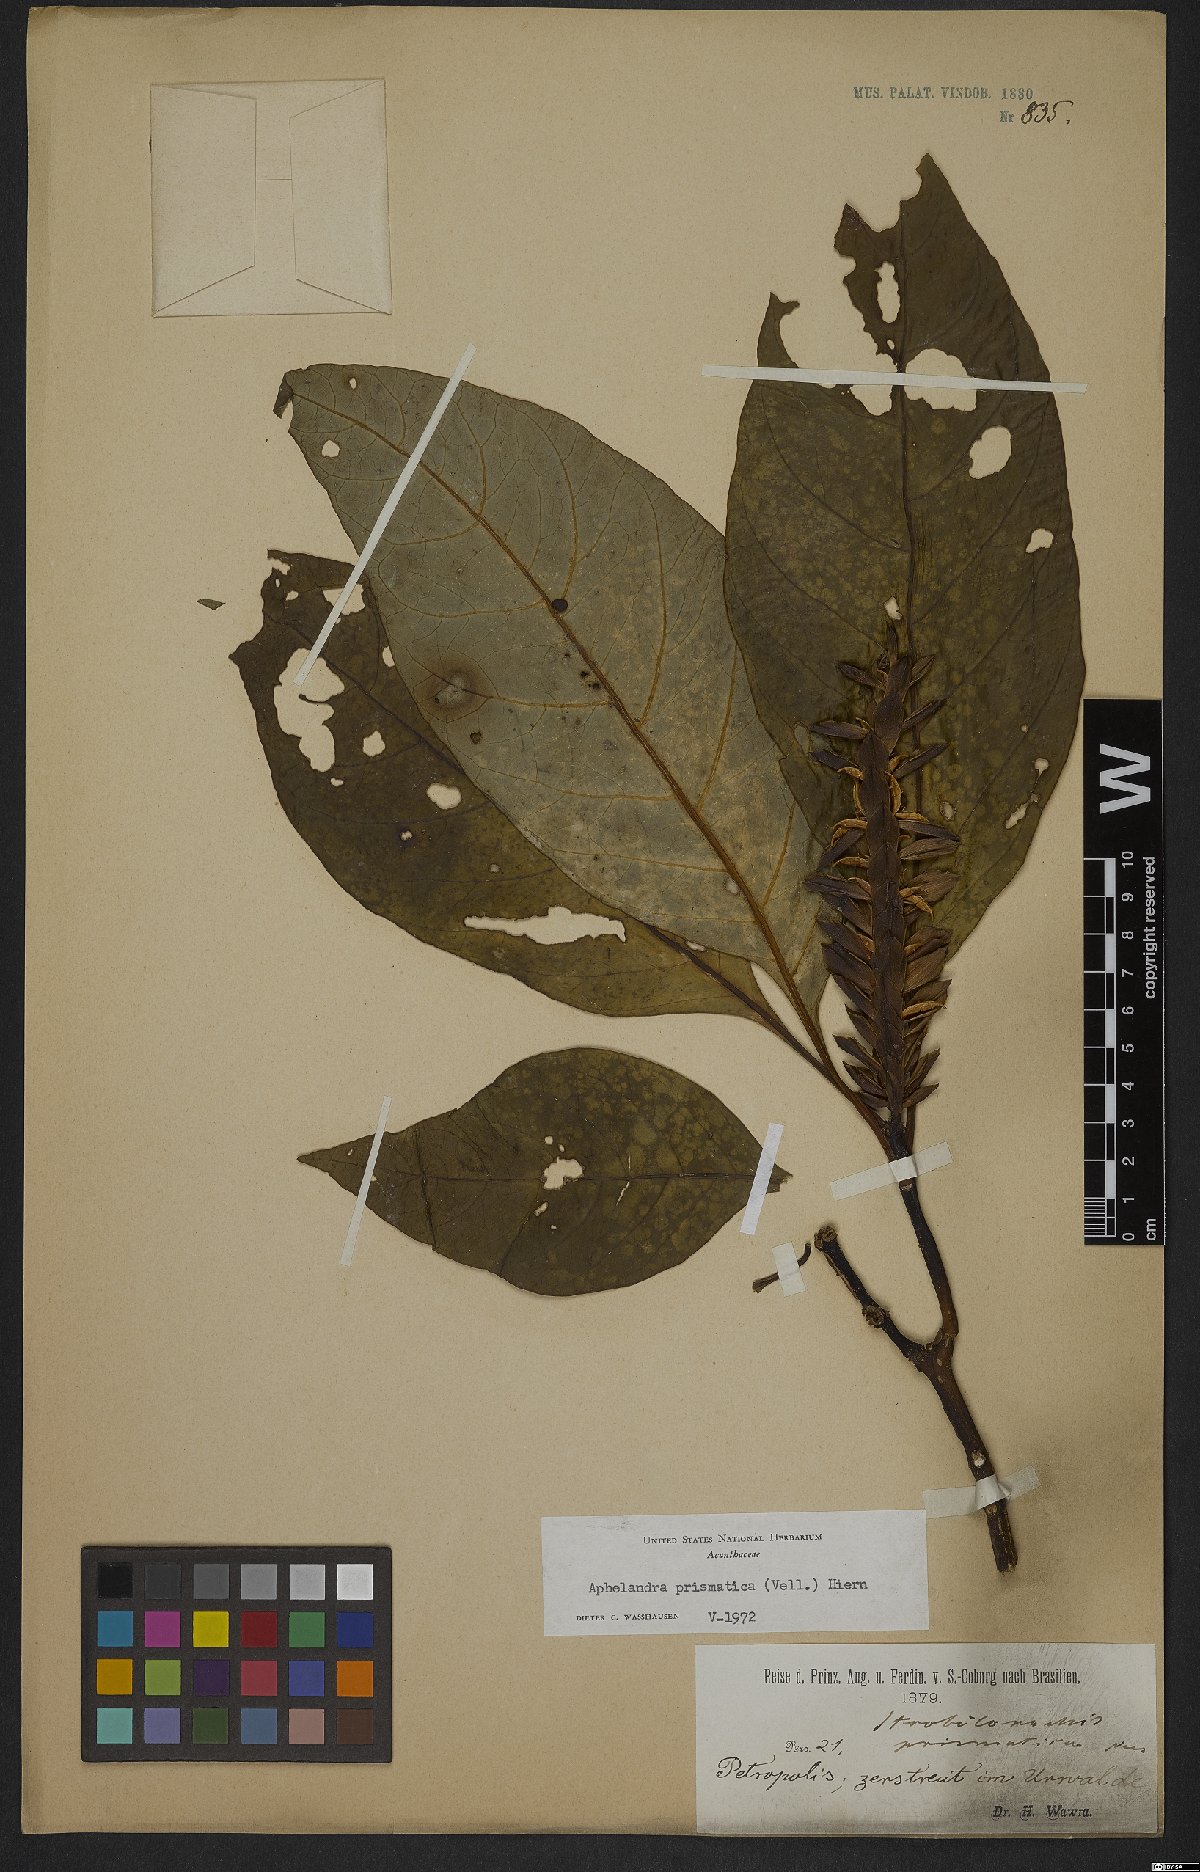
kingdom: Plantae
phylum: Tracheophyta
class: Magnoliopsida
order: Lamiales
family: Acanthaceae
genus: Aphelandra
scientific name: Aphelandra prismatica
